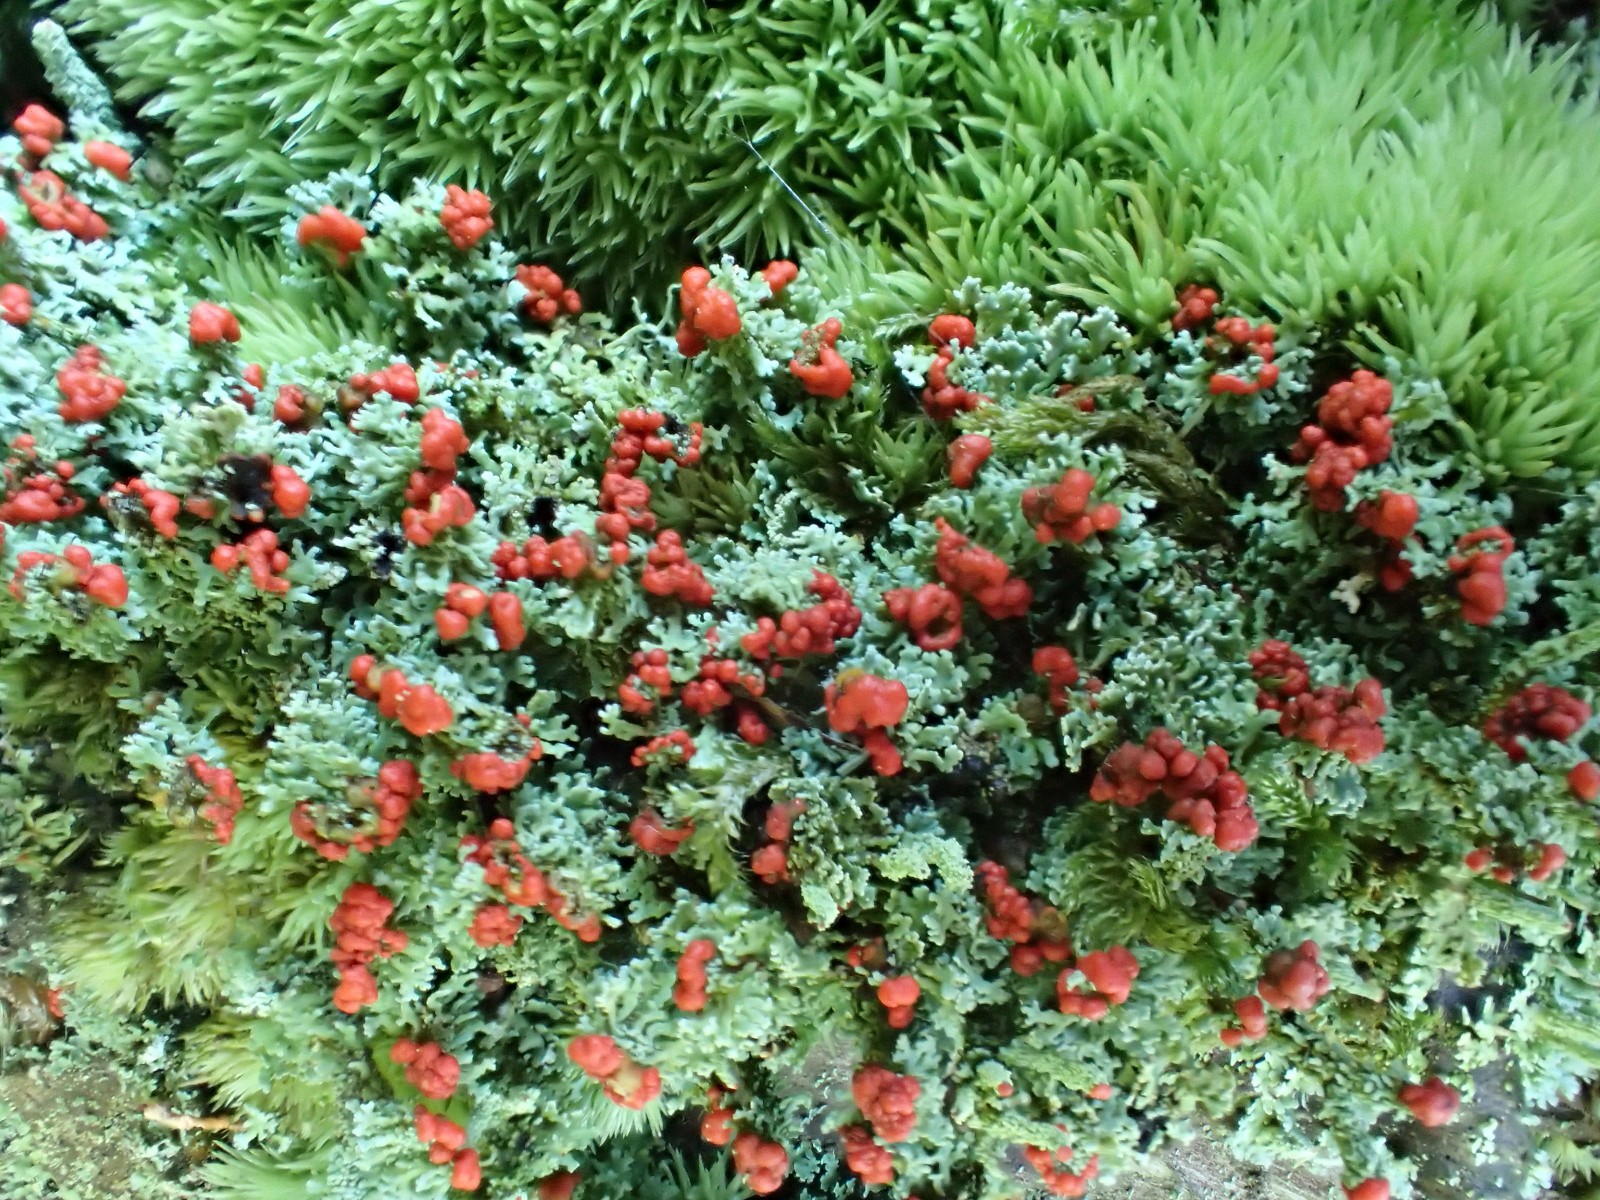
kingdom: Fungi
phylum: Ascomycota
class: Lecanoromycetes
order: Lecanorales
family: Cladoniaceae
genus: Cladonia
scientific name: Cladonia floerkeana
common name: lakrød bægerlav
